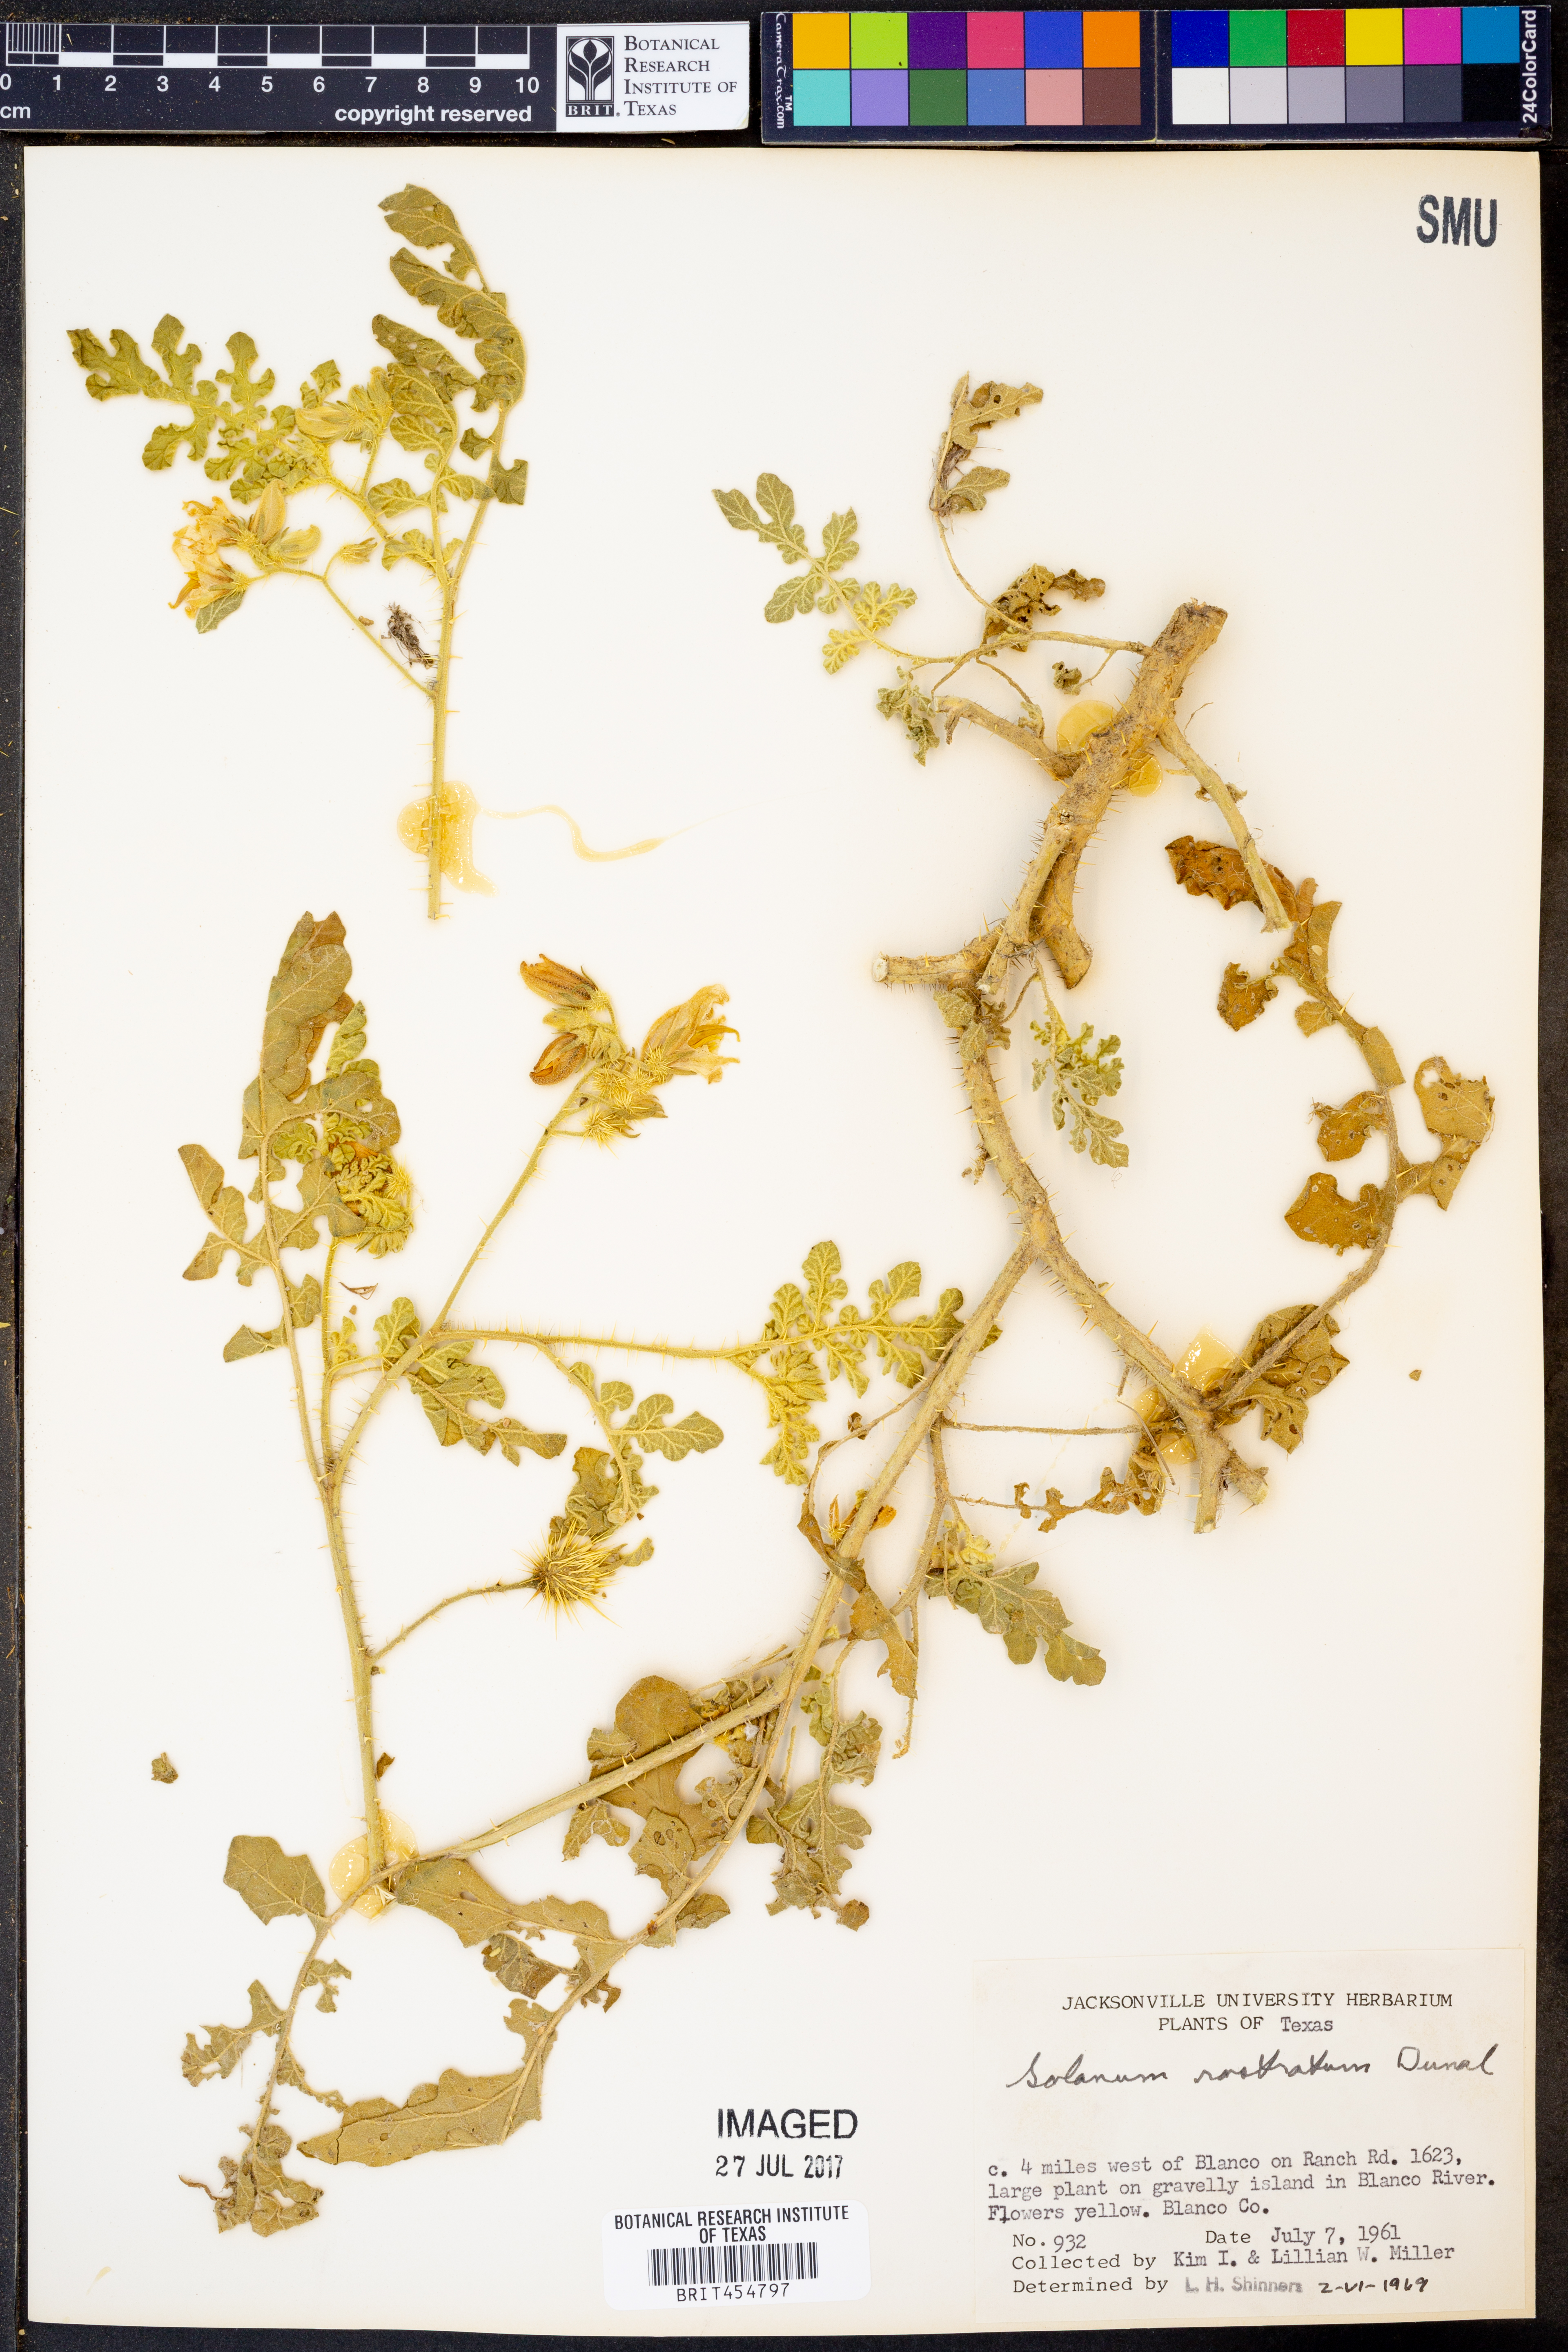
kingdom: Plantae
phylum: Tracheophyta
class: Magnoliopsida
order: Solanales
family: Solanaceae
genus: Solanum
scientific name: Solanum angustifolium
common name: Buffalobur nightshade
